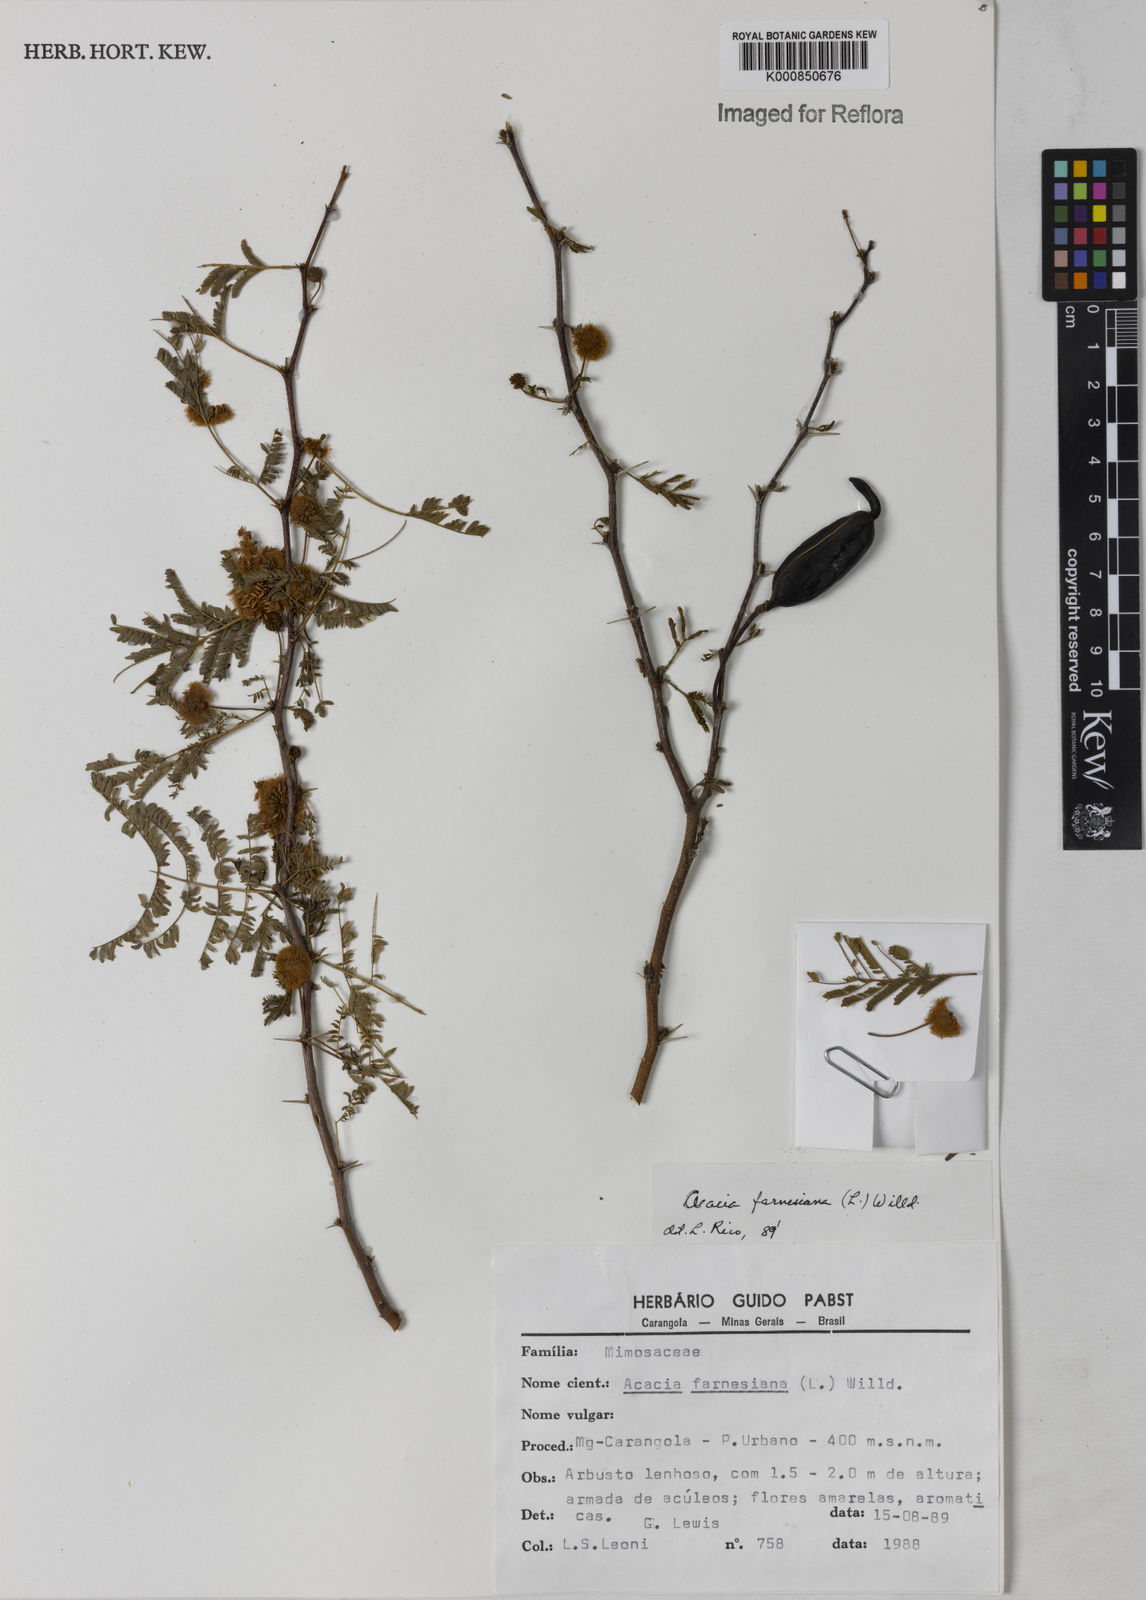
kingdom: Plantae
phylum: Tracheophyta
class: Magnoliopsida
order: Fabales
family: Fabaceae
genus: Vachellia
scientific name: Vachellia farnesiana
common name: Sweet acacia
